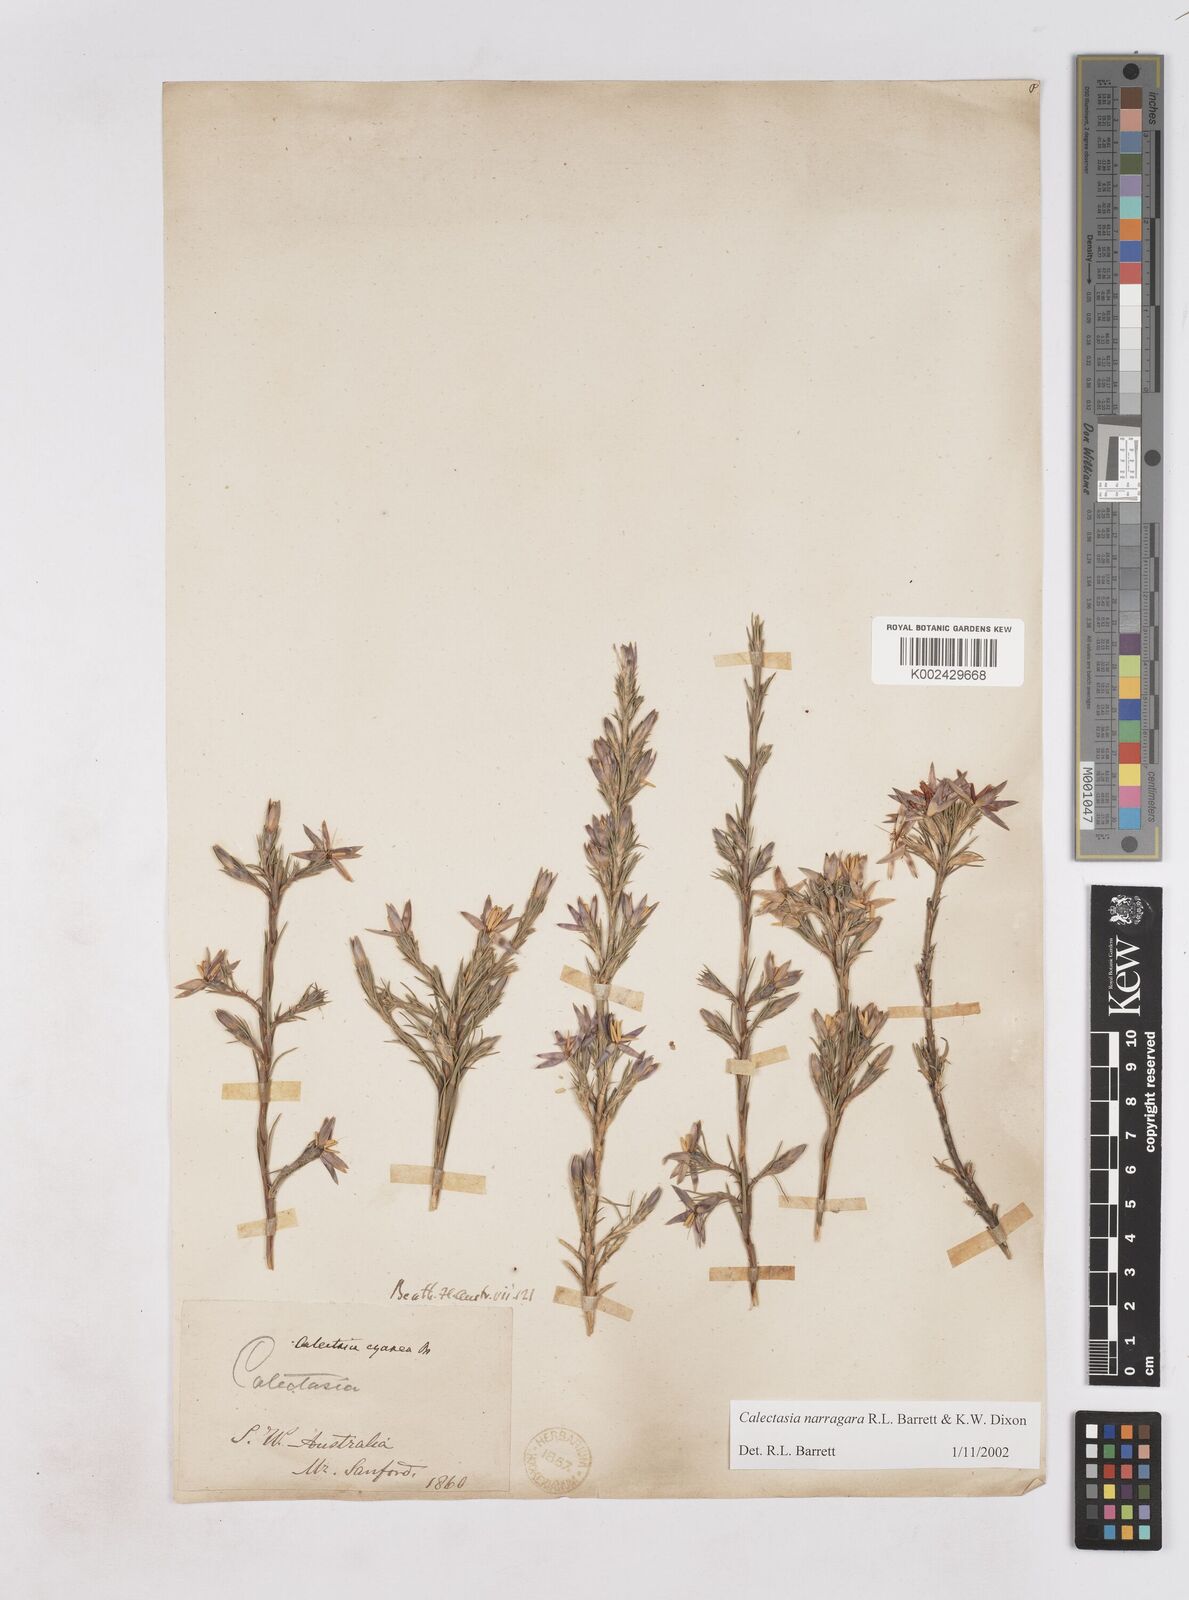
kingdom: Plantae
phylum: Tracheophyta
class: Liliopsida
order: Arecales
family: Dasypogonaceae
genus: Calectasia
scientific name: Calectasia narragara
